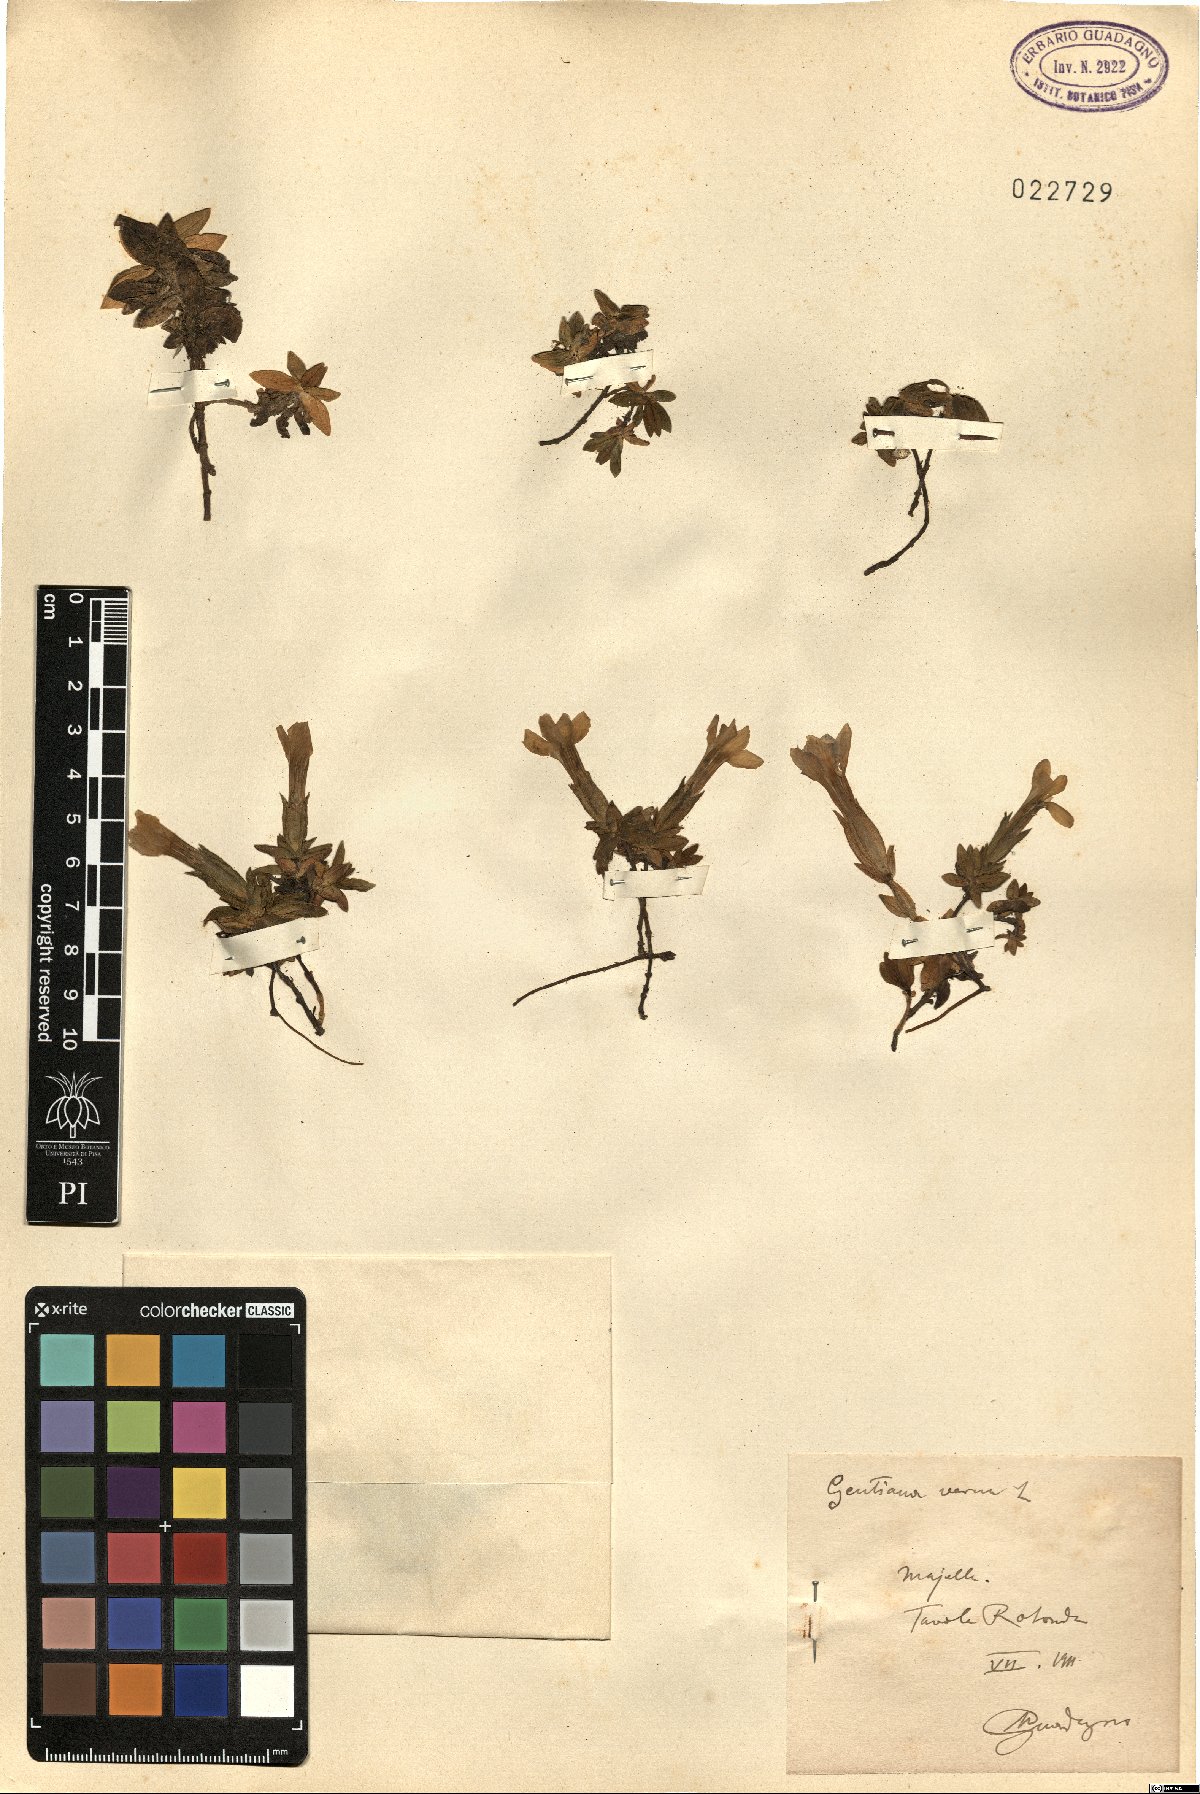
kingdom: Plantae
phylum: Tracheophyta
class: Magnoliopsida
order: Gentianales
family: Gentianaceae
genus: Gentiana
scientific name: Gentiana verna
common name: Spring gentian
